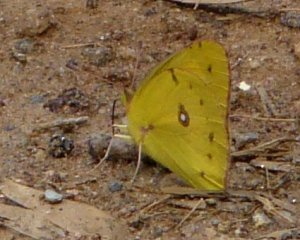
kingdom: Animalia
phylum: Arthropoda
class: Insecta
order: Lepidoptera
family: Pieridae
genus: Colias
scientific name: Colias eurytheme
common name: Orange Sulphur
